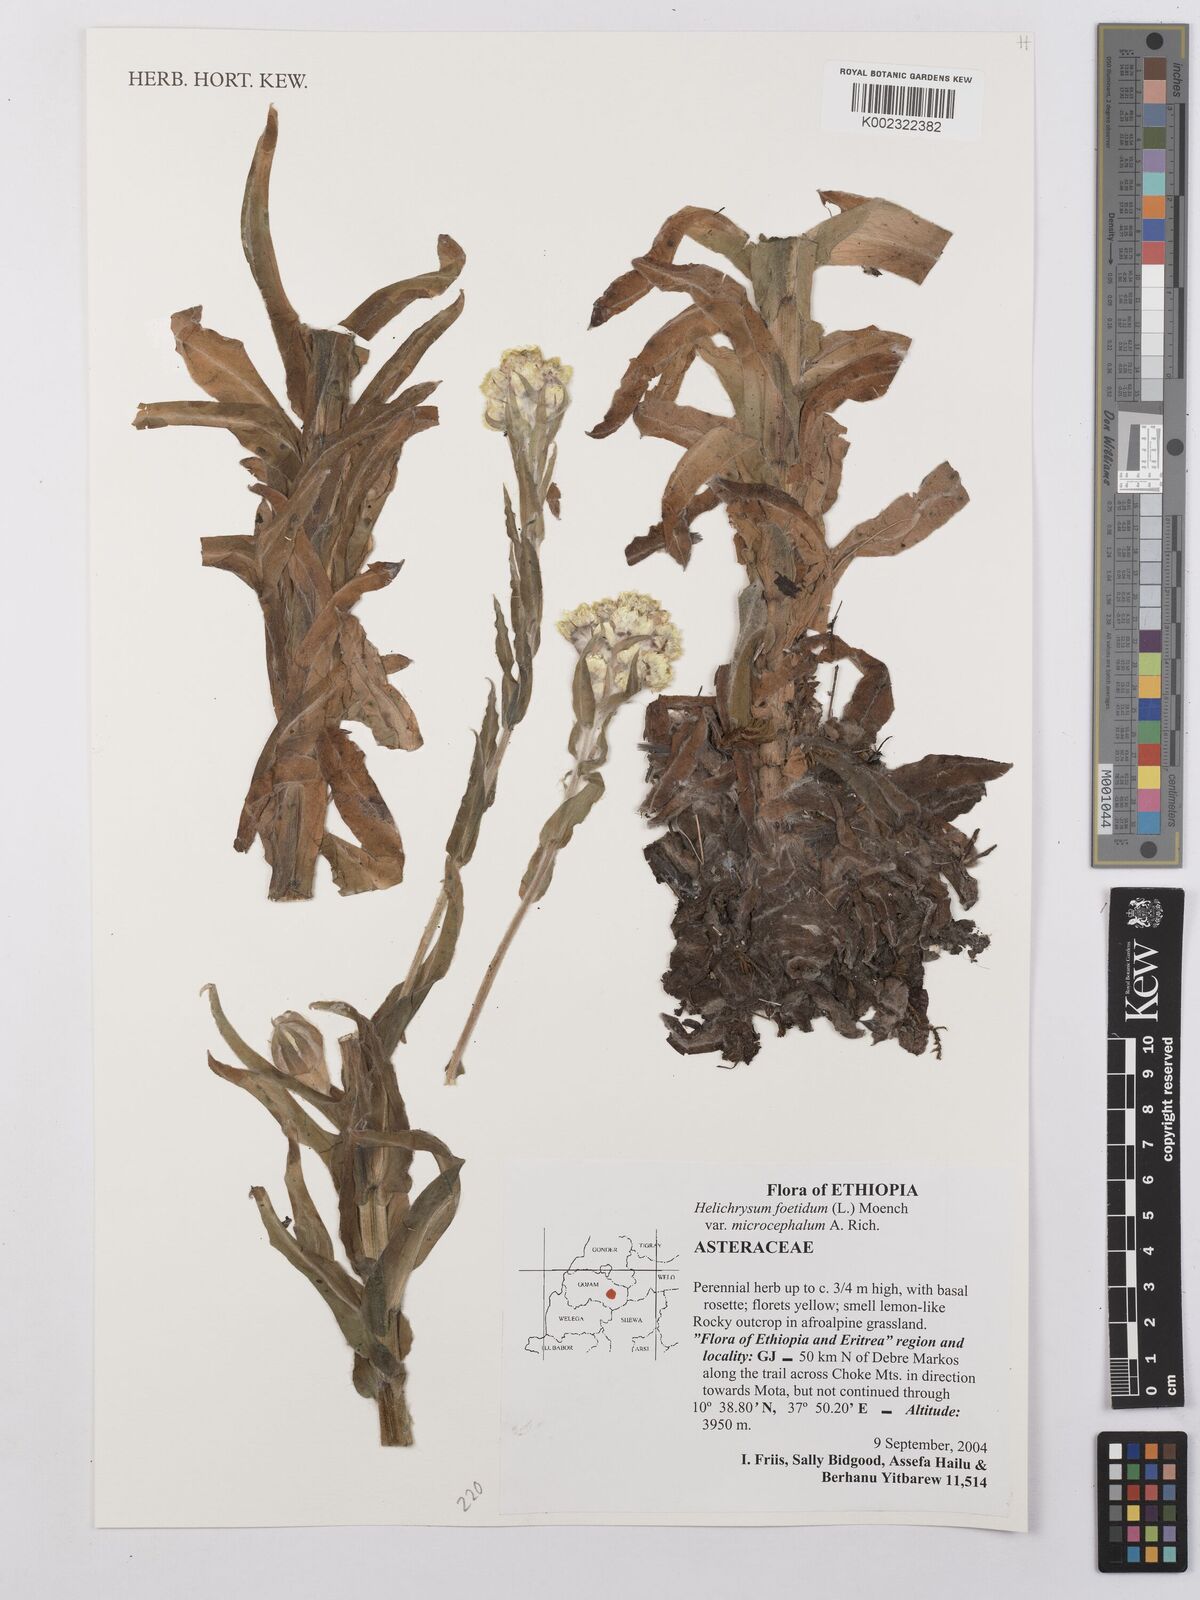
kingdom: Plantae
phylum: Tracheophyta
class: Magnoliopsida
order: Asterales
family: Asteraceae
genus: Helichrysum
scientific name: Helichrysum foetidum
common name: Stinking everlasting
